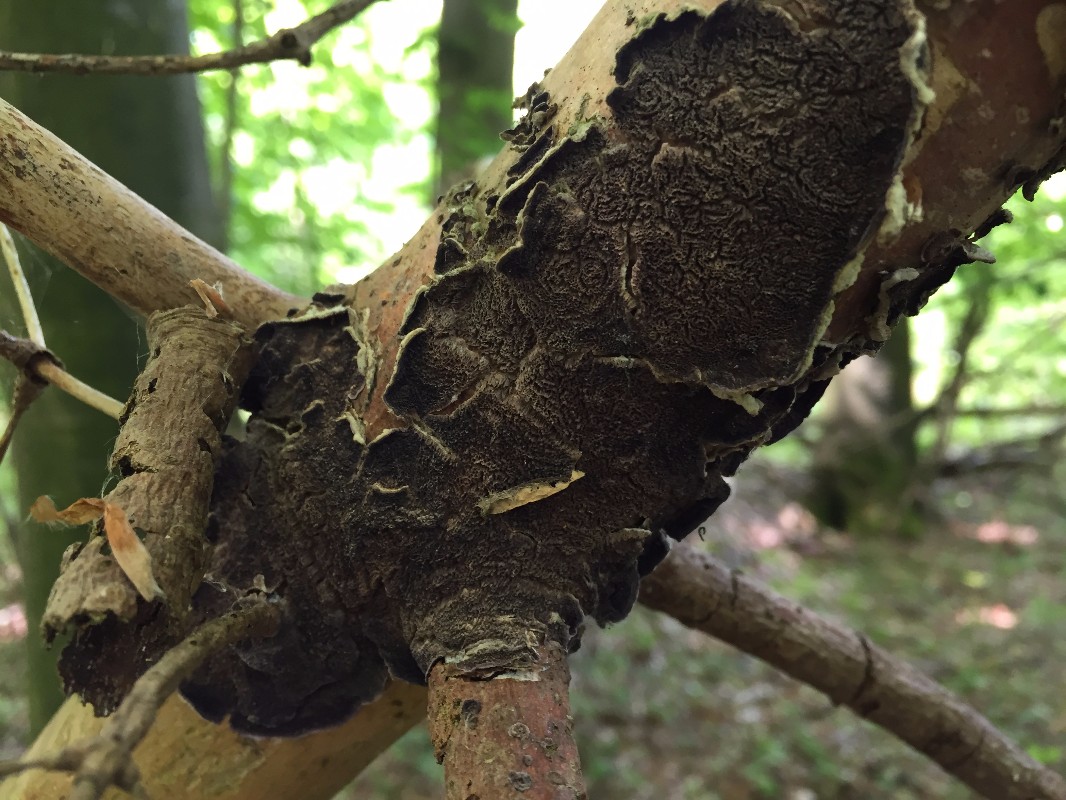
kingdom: Fungi
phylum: Basidiomycota
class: Agaricomycetes
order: Hymenochaetales
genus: Trichaptum
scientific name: Trichaptum abietinum
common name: almindelig violporesvamp
